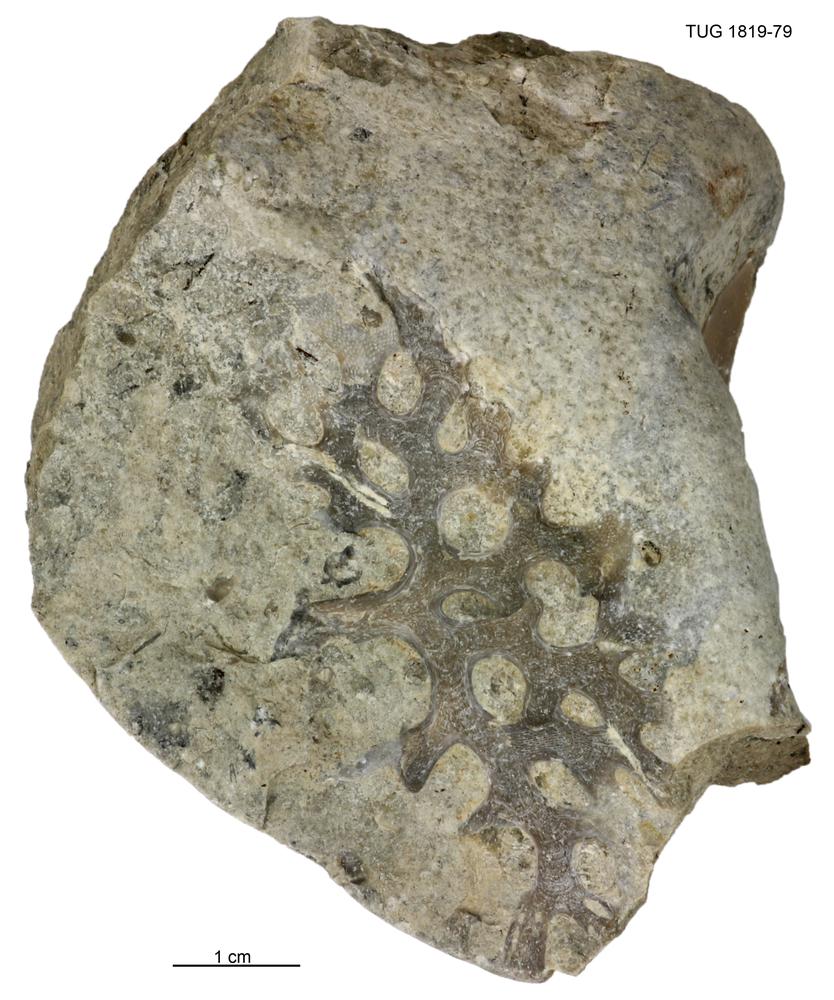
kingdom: Animalia
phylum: Bryozoa
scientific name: Bryozoa
